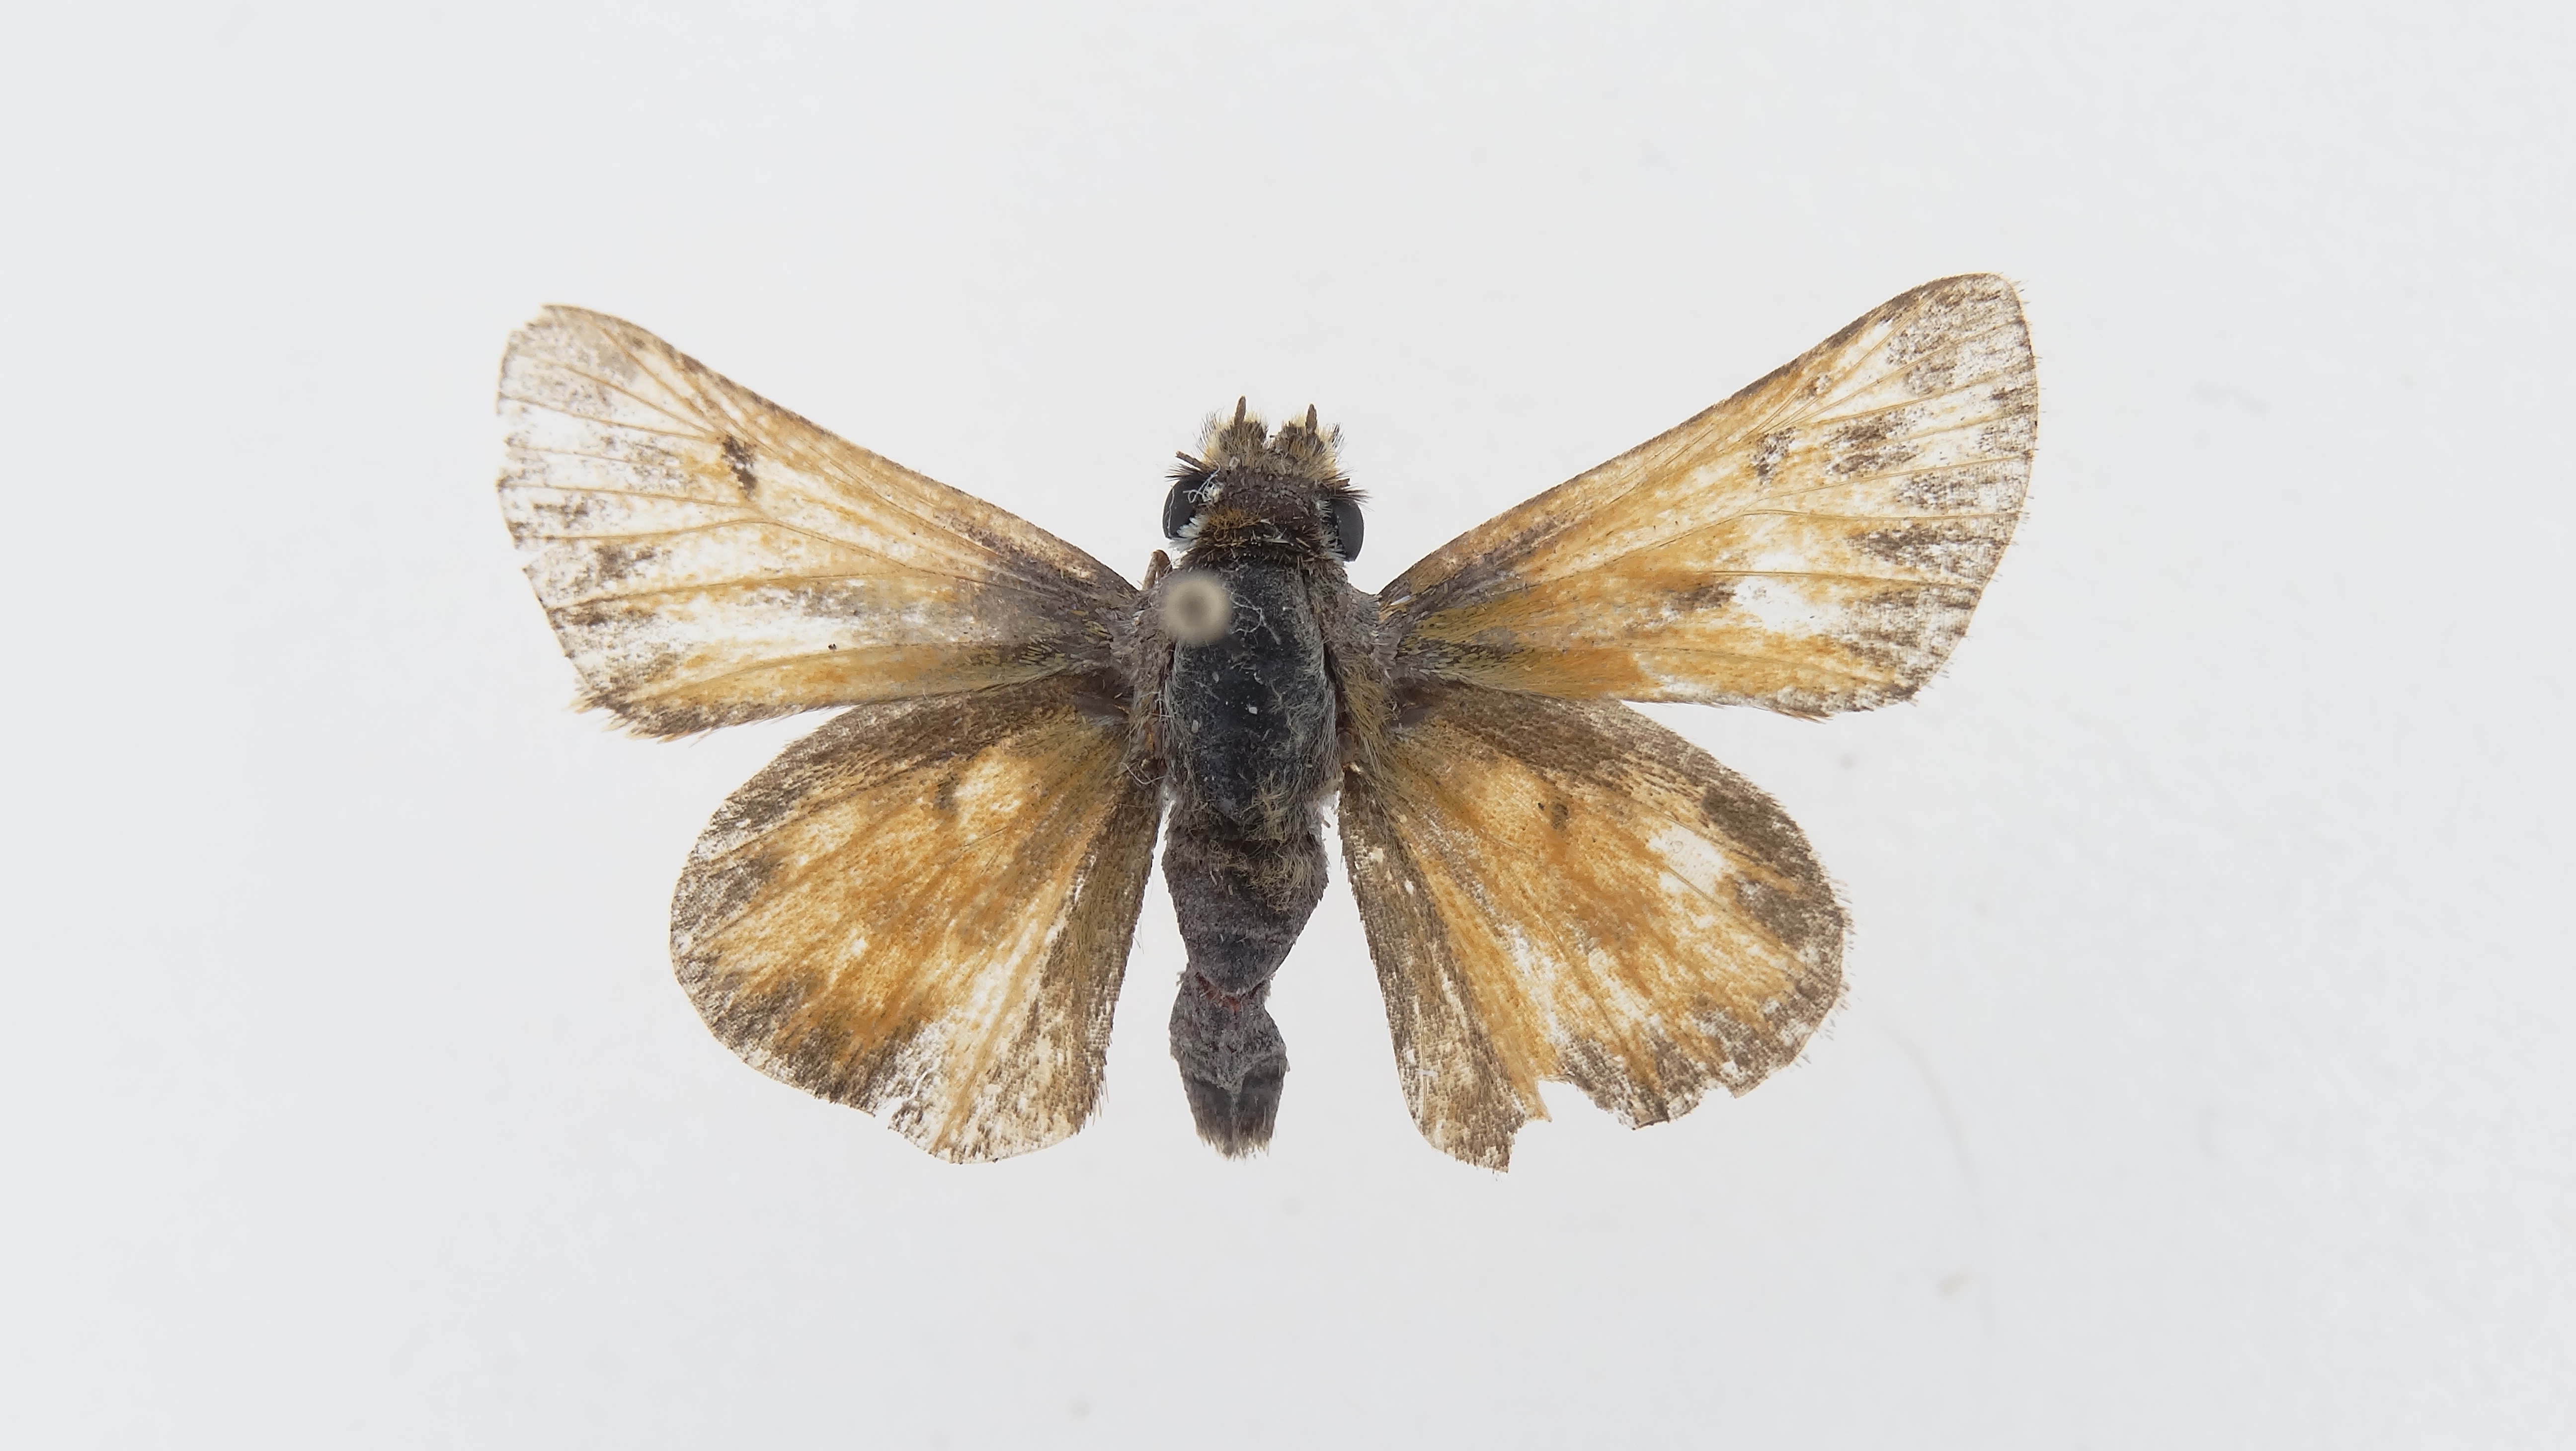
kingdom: Animalia
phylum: Arthropoda
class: Insecta
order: Lepidoptera
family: Hesperiidae
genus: Hylephila
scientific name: Hylephila
